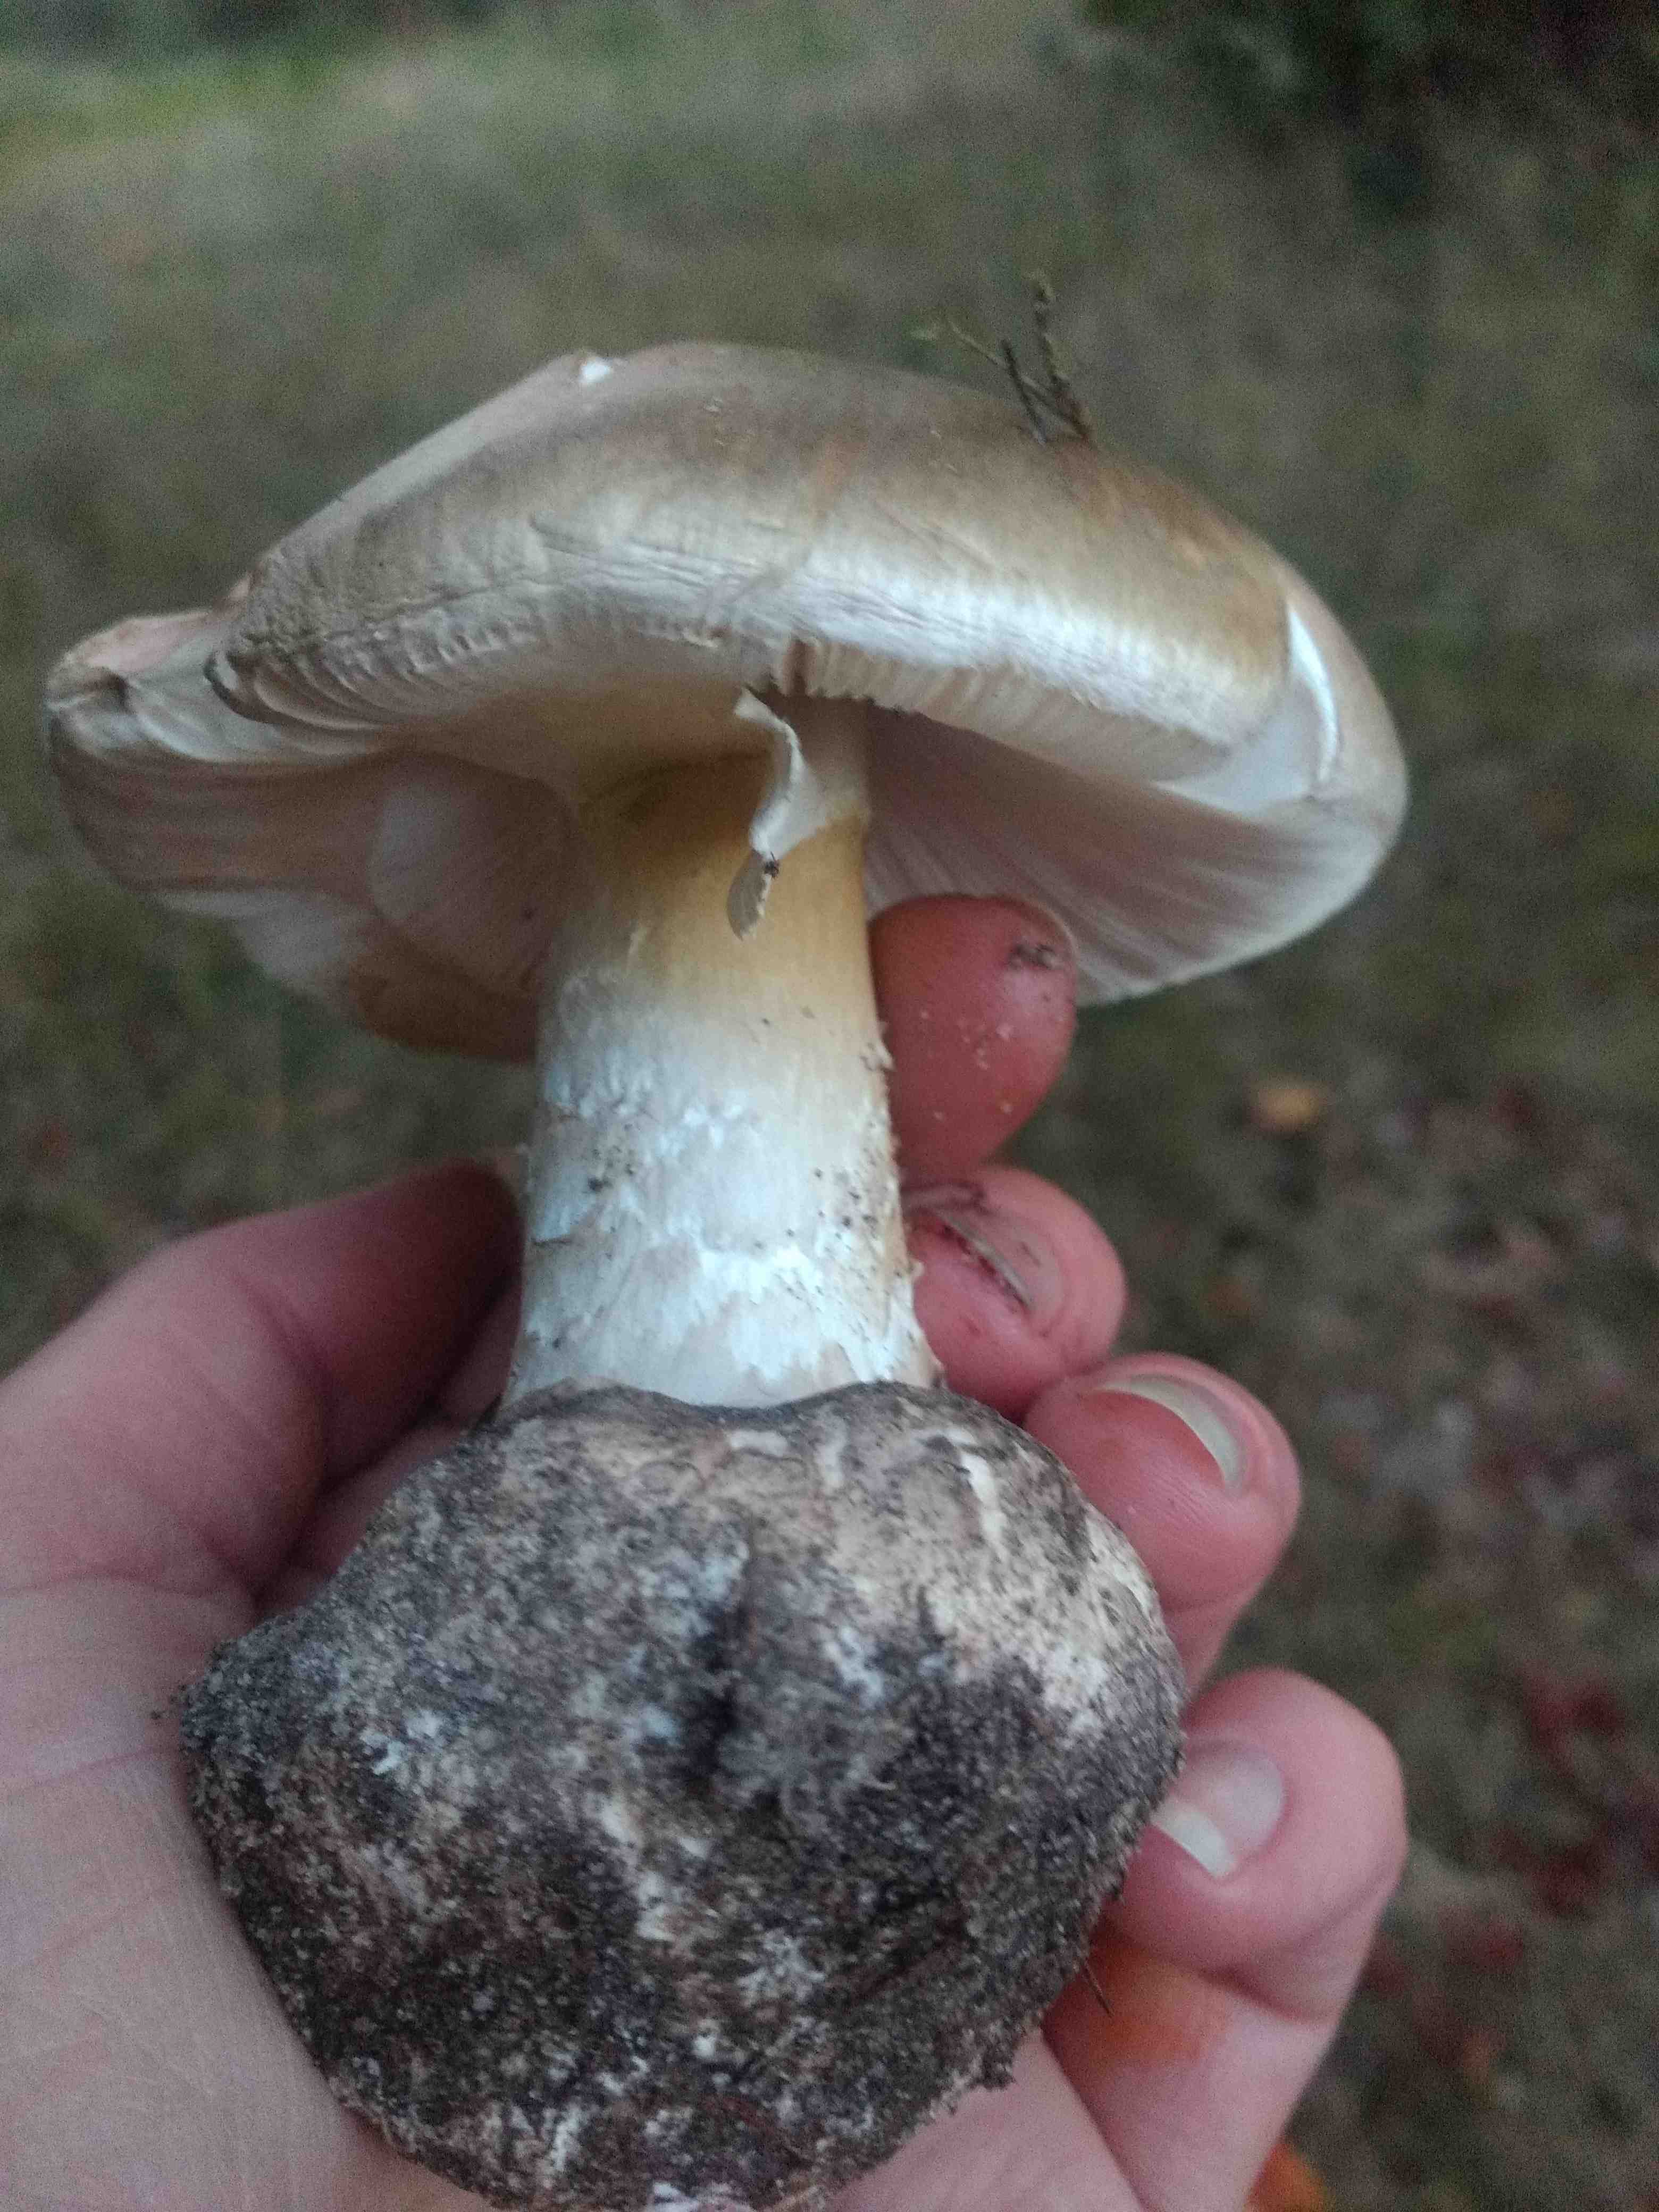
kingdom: Fungi
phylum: Basidiomycota
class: Agaricomycetes
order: Agaricales
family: Amanitaceae
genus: Amanita
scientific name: Amanita phalloides
